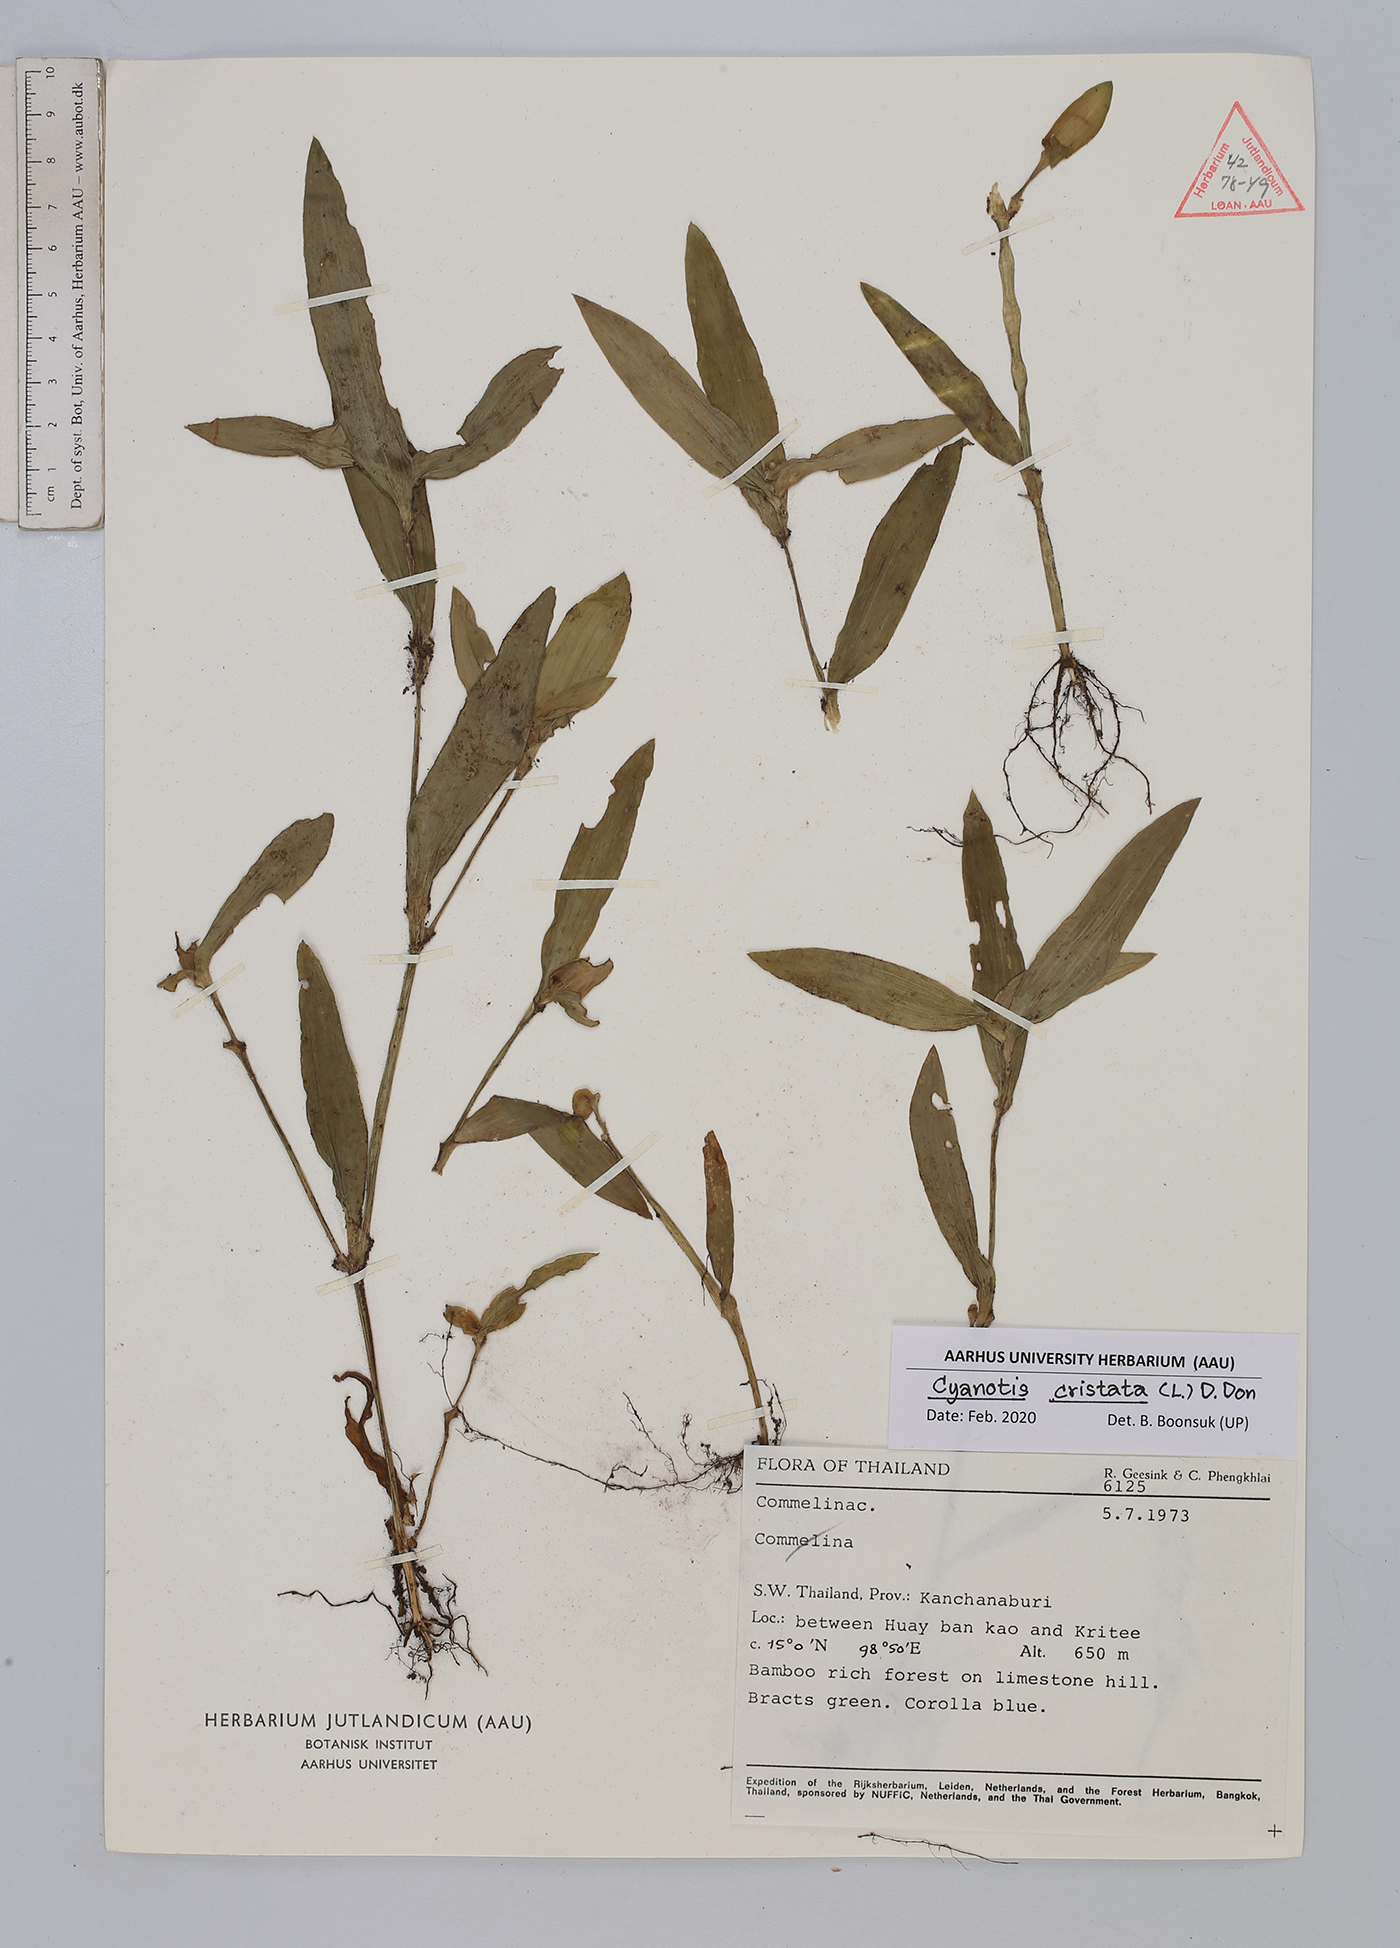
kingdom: Plantae
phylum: Tracheophyta
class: Liliopsida
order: Commelinales
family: Commelinaceae
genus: Cyanotis
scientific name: Cyanotis cristata
